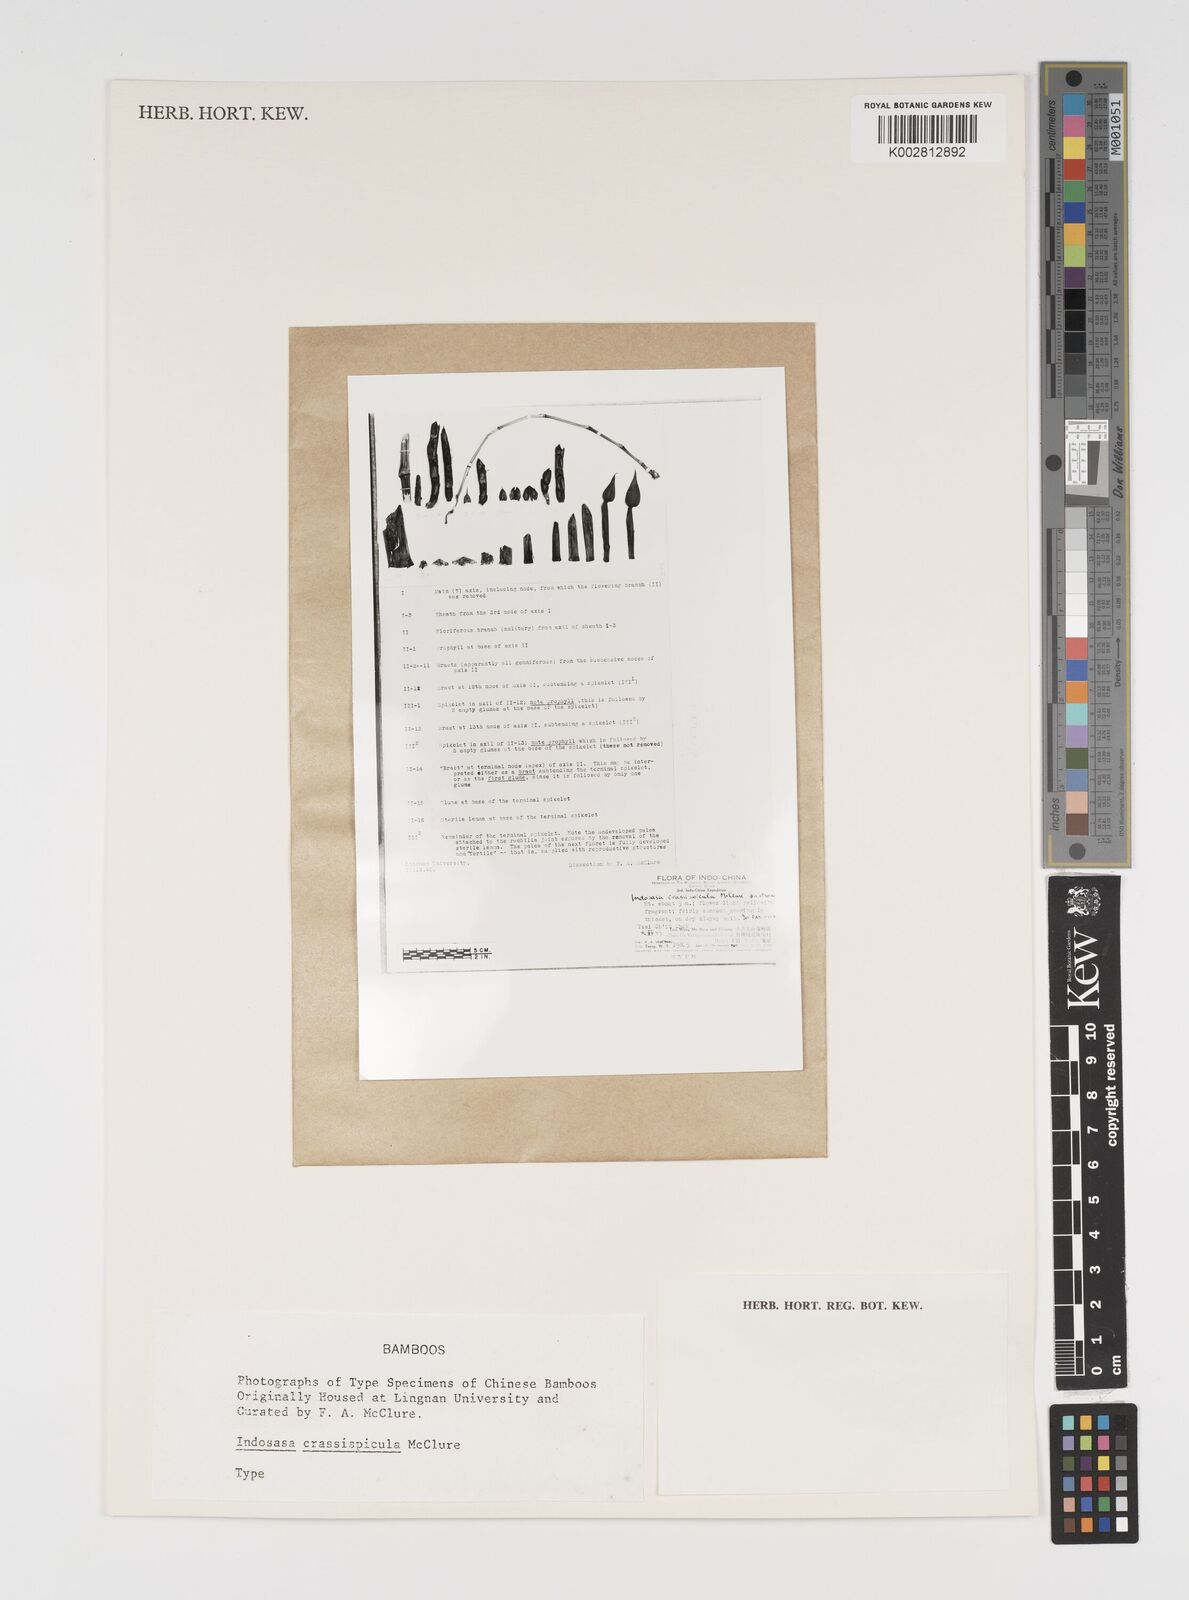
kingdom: Plantae
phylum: Tracheophyta
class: Liliopsida
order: Poales
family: Poaceae
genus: Indosasa
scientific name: Indosasa crassiflora
